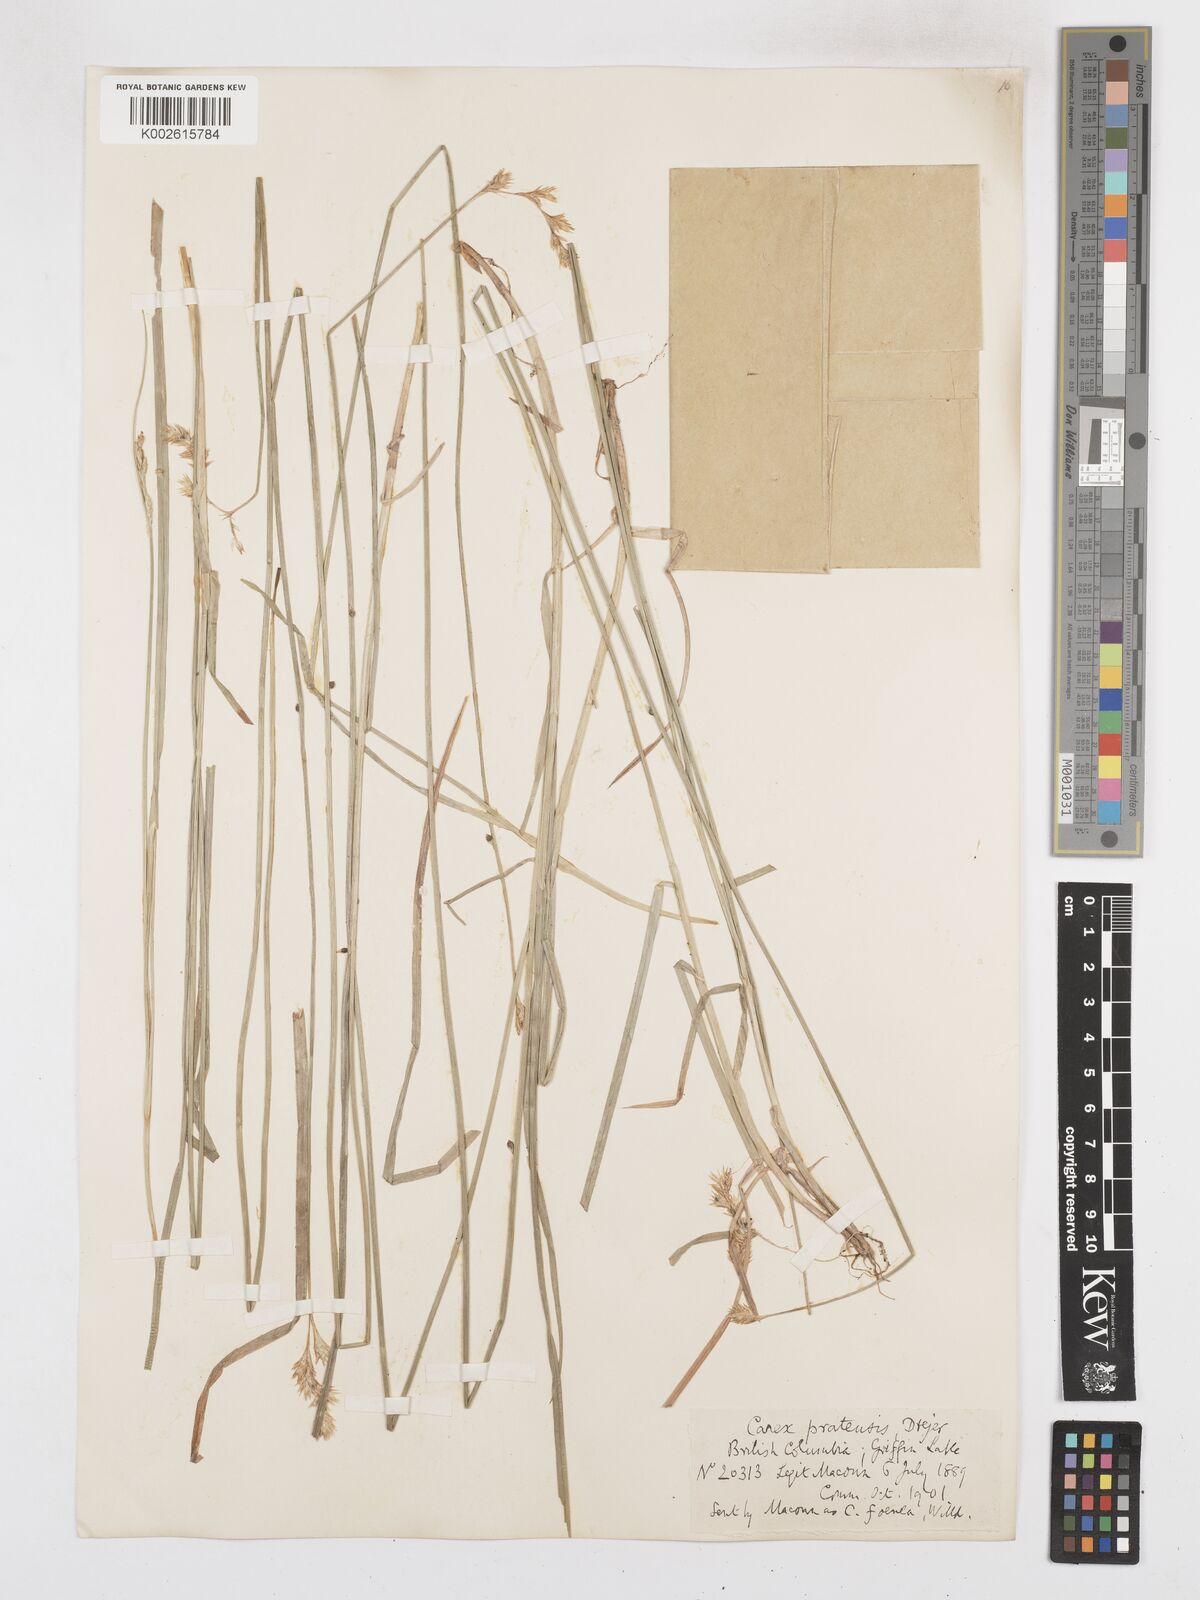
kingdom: Plantae
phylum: Tracheophyta
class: Liliopsida
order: Poales
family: Cyperaceae
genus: Carex
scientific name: Carex praticola
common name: Large-fruited oval sedge
